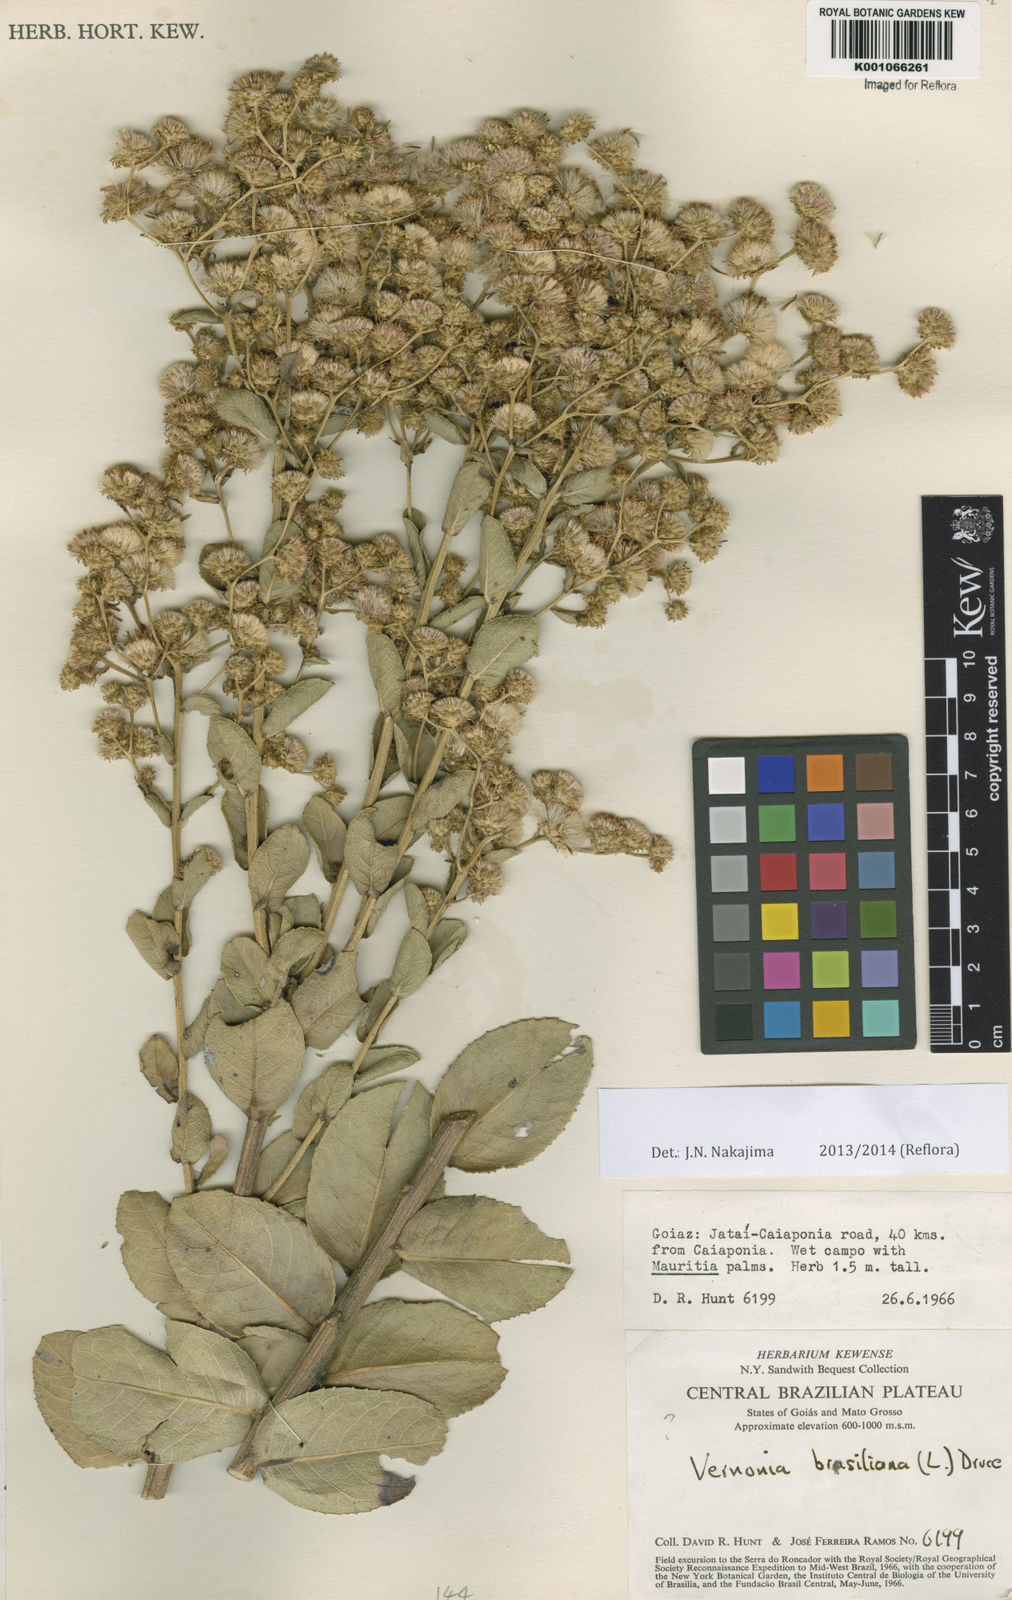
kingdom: Plantae
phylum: Tracheophyta
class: Magnoliopsida
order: Asterales
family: Asteraceae
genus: Vernonanthura
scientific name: Vernonanthura angulata
